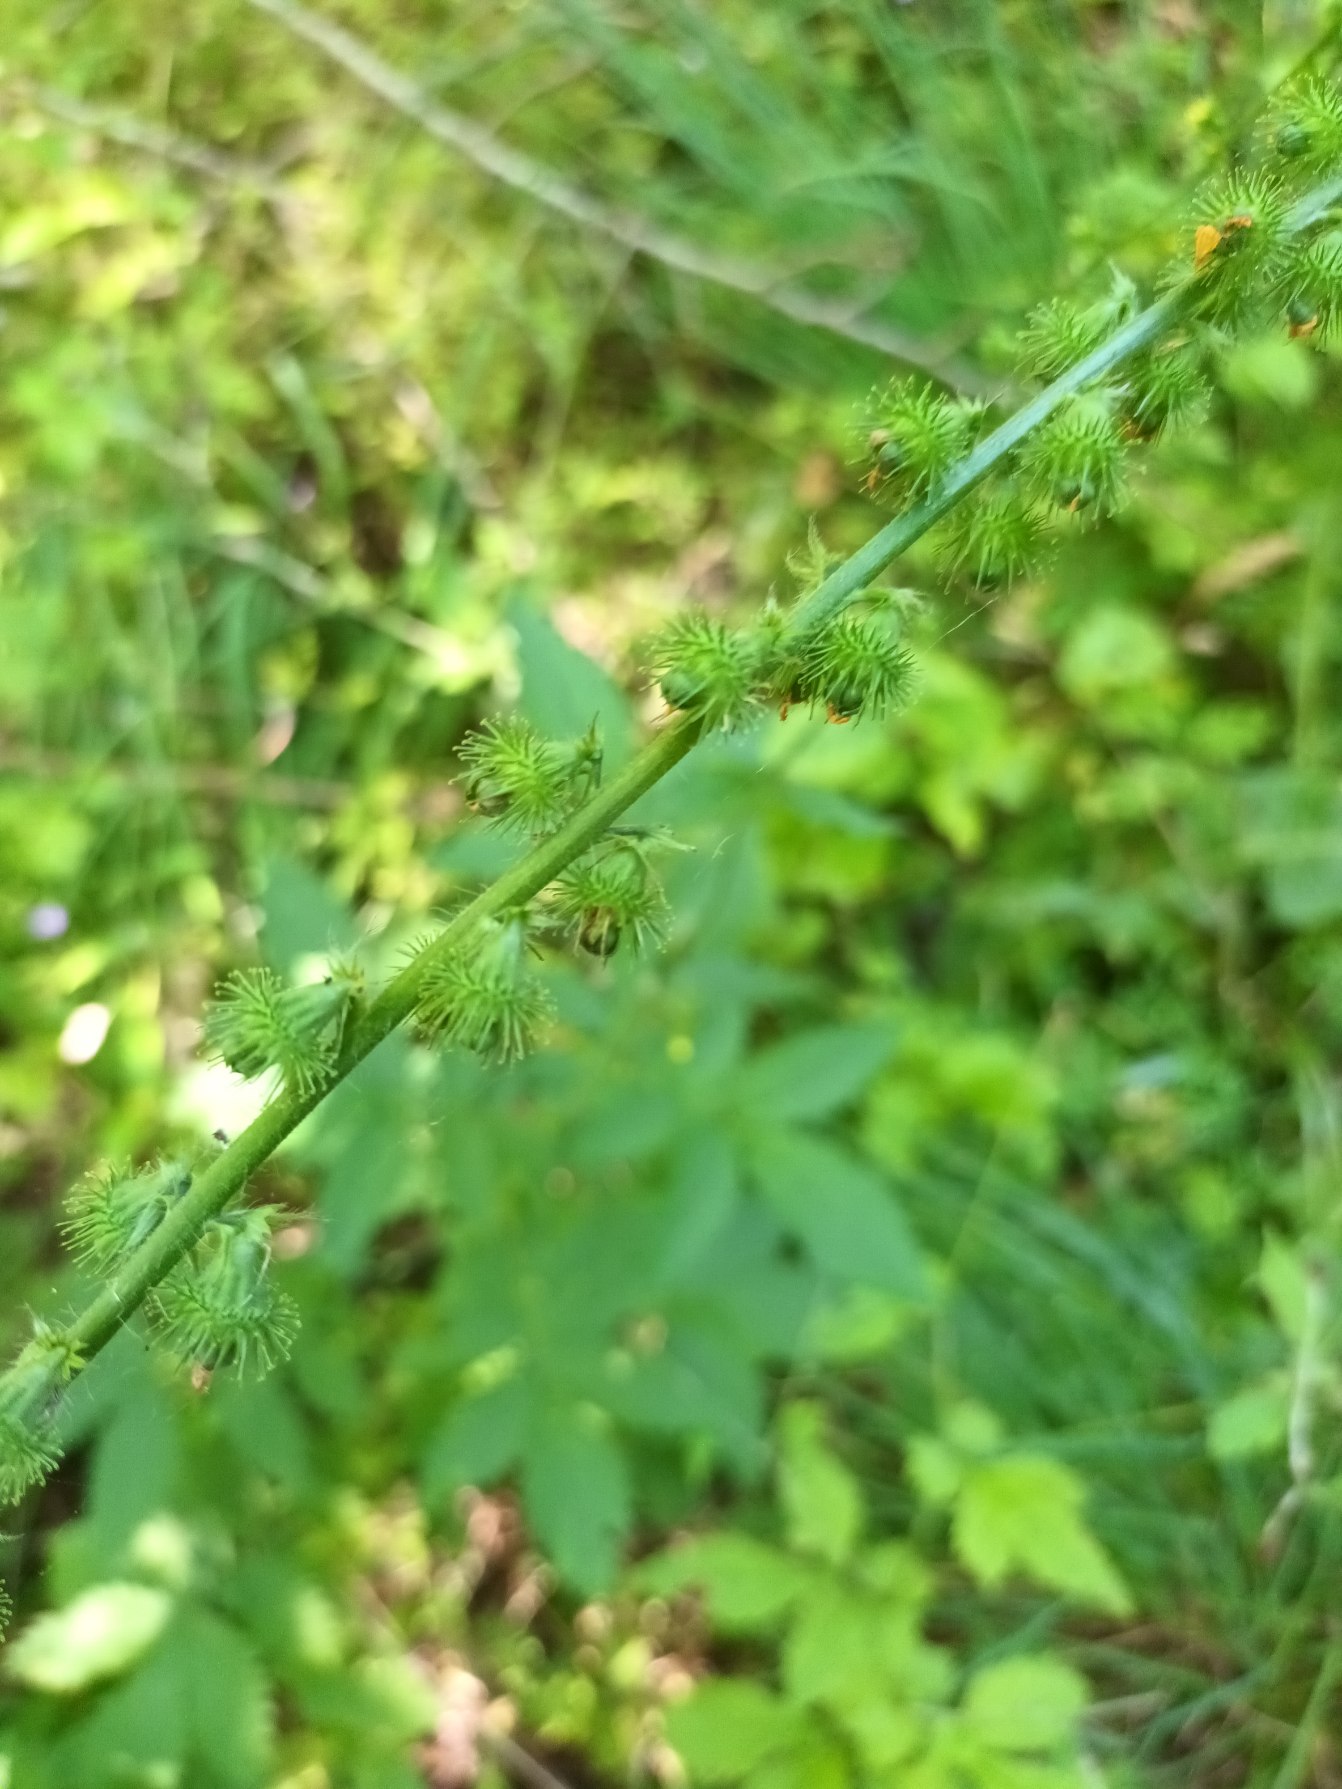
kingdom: Plantae
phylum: Tracheophyta
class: Magnoliopsida
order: Rosales
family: Rosaceae
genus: Agrimonia
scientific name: Agrimonia procera
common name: Vellugtende agermåne
